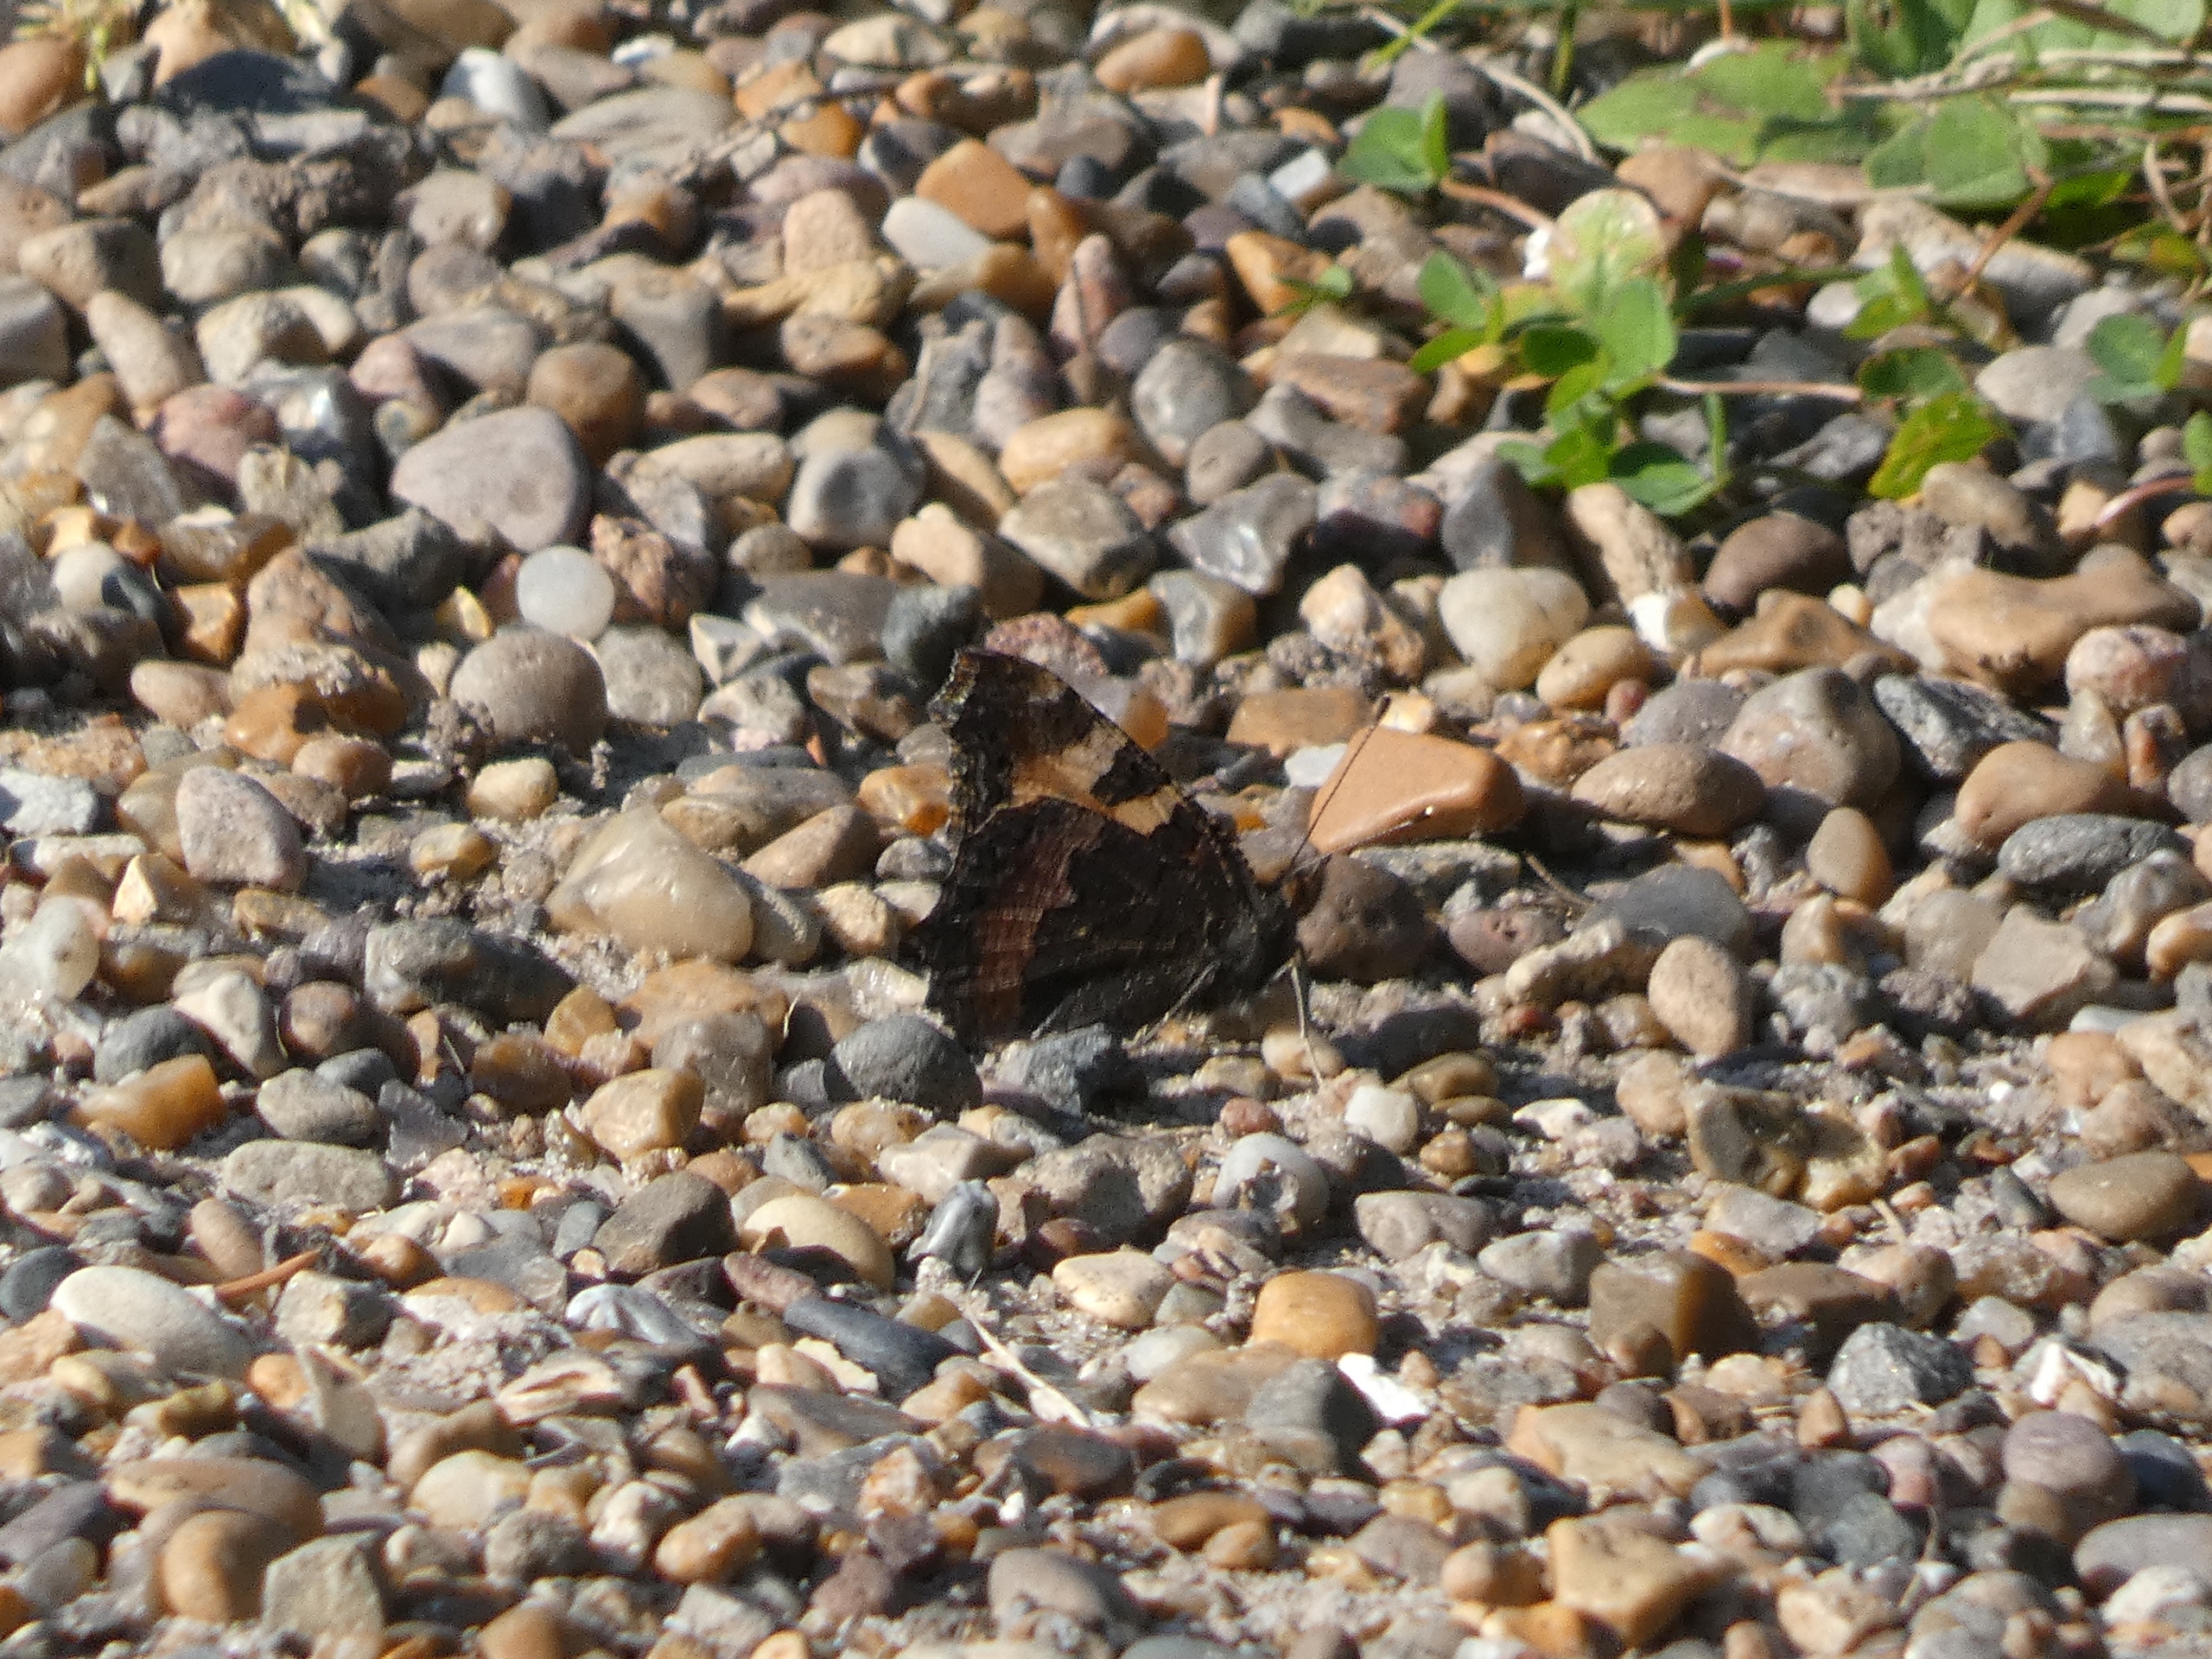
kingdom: Animalia
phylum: Arthropoda
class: Insecta
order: Lepidoptera
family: Nymphalidae
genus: Aglais
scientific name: Aglais urticae
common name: Nældens takvinge
